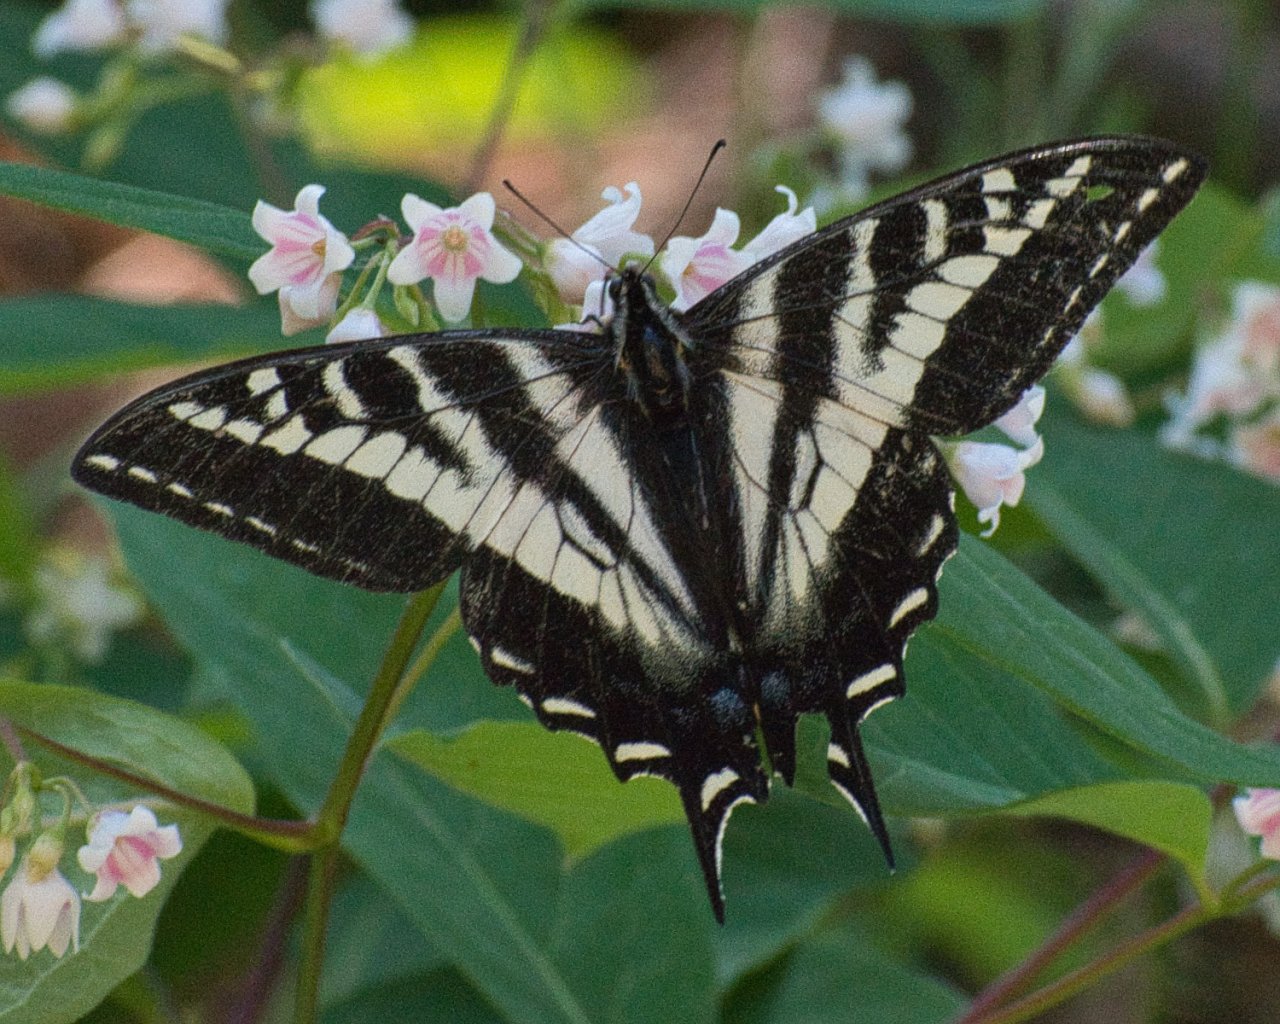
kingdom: Animalia
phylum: Arthropoda
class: Insecta
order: Lepidoptera
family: Papilionidae
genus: Pterourus
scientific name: Pterourus eurymedon
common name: Pale Swallowtail
